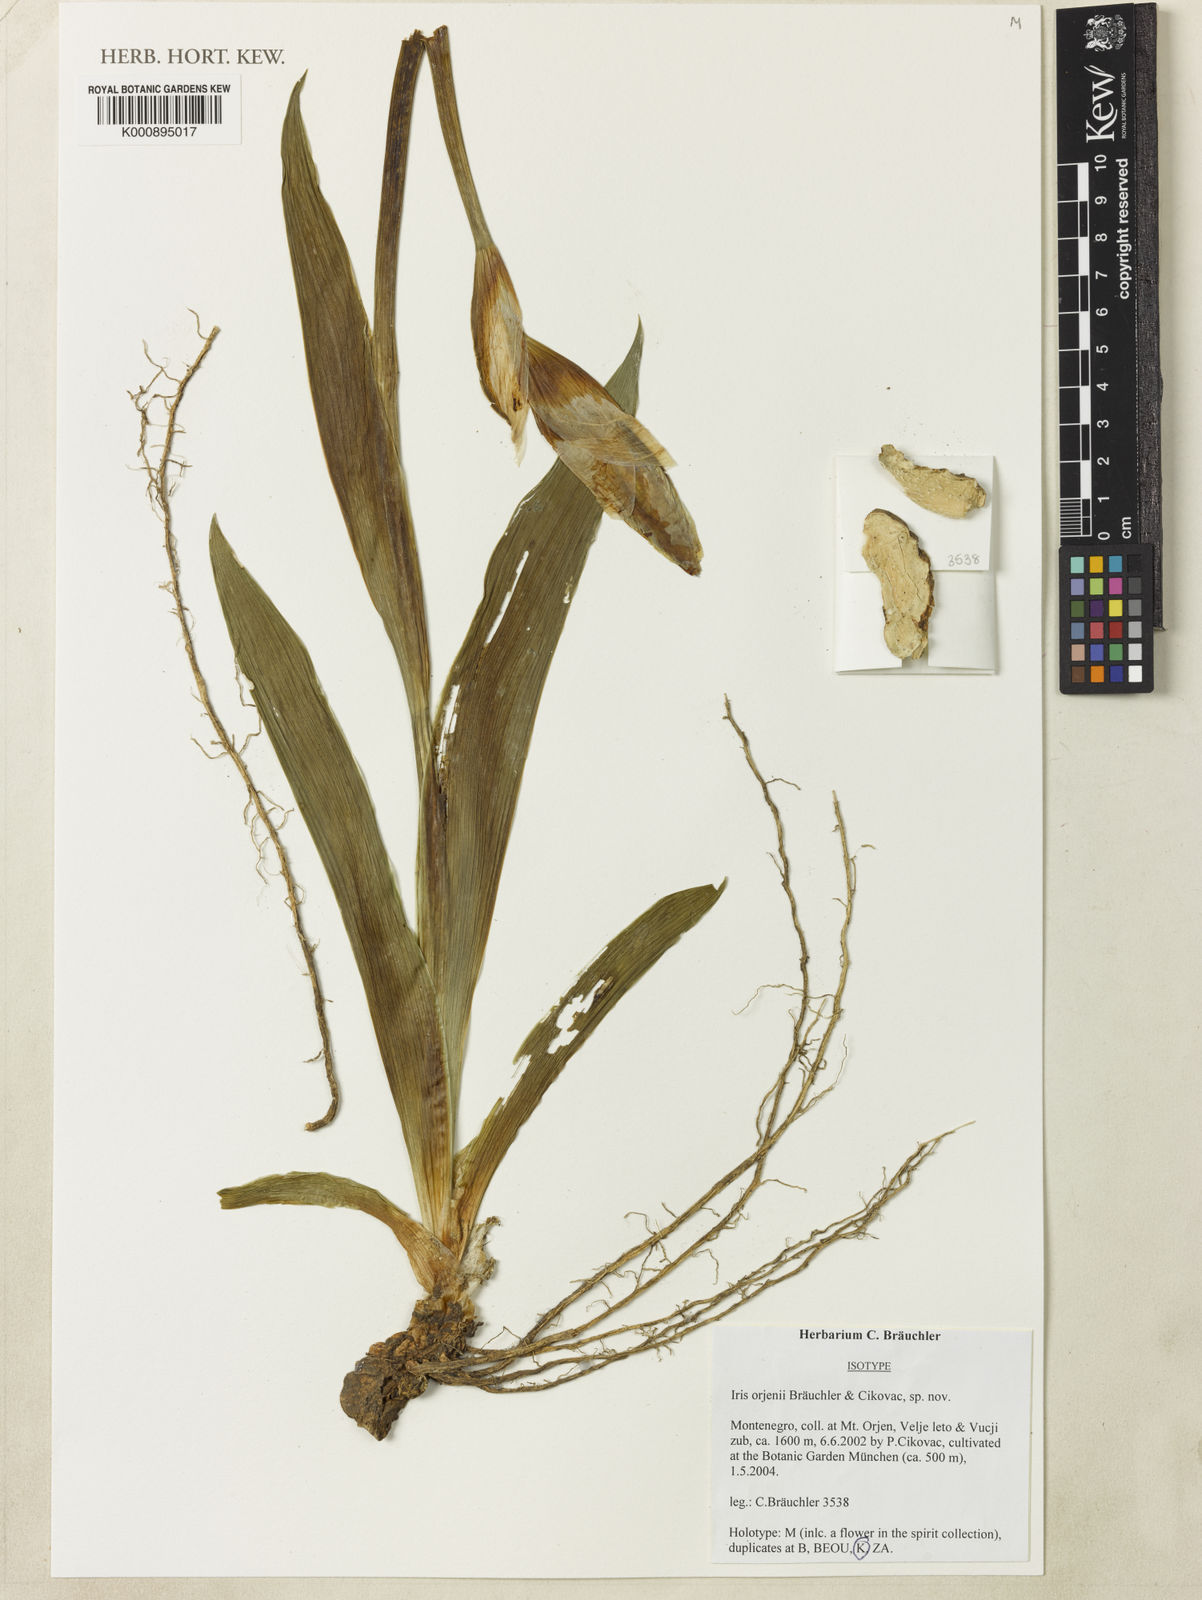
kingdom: Plantae
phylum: Tracheophyta
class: Liliopsida
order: Asparagales
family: Iridaceae
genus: Iris
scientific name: Iris
